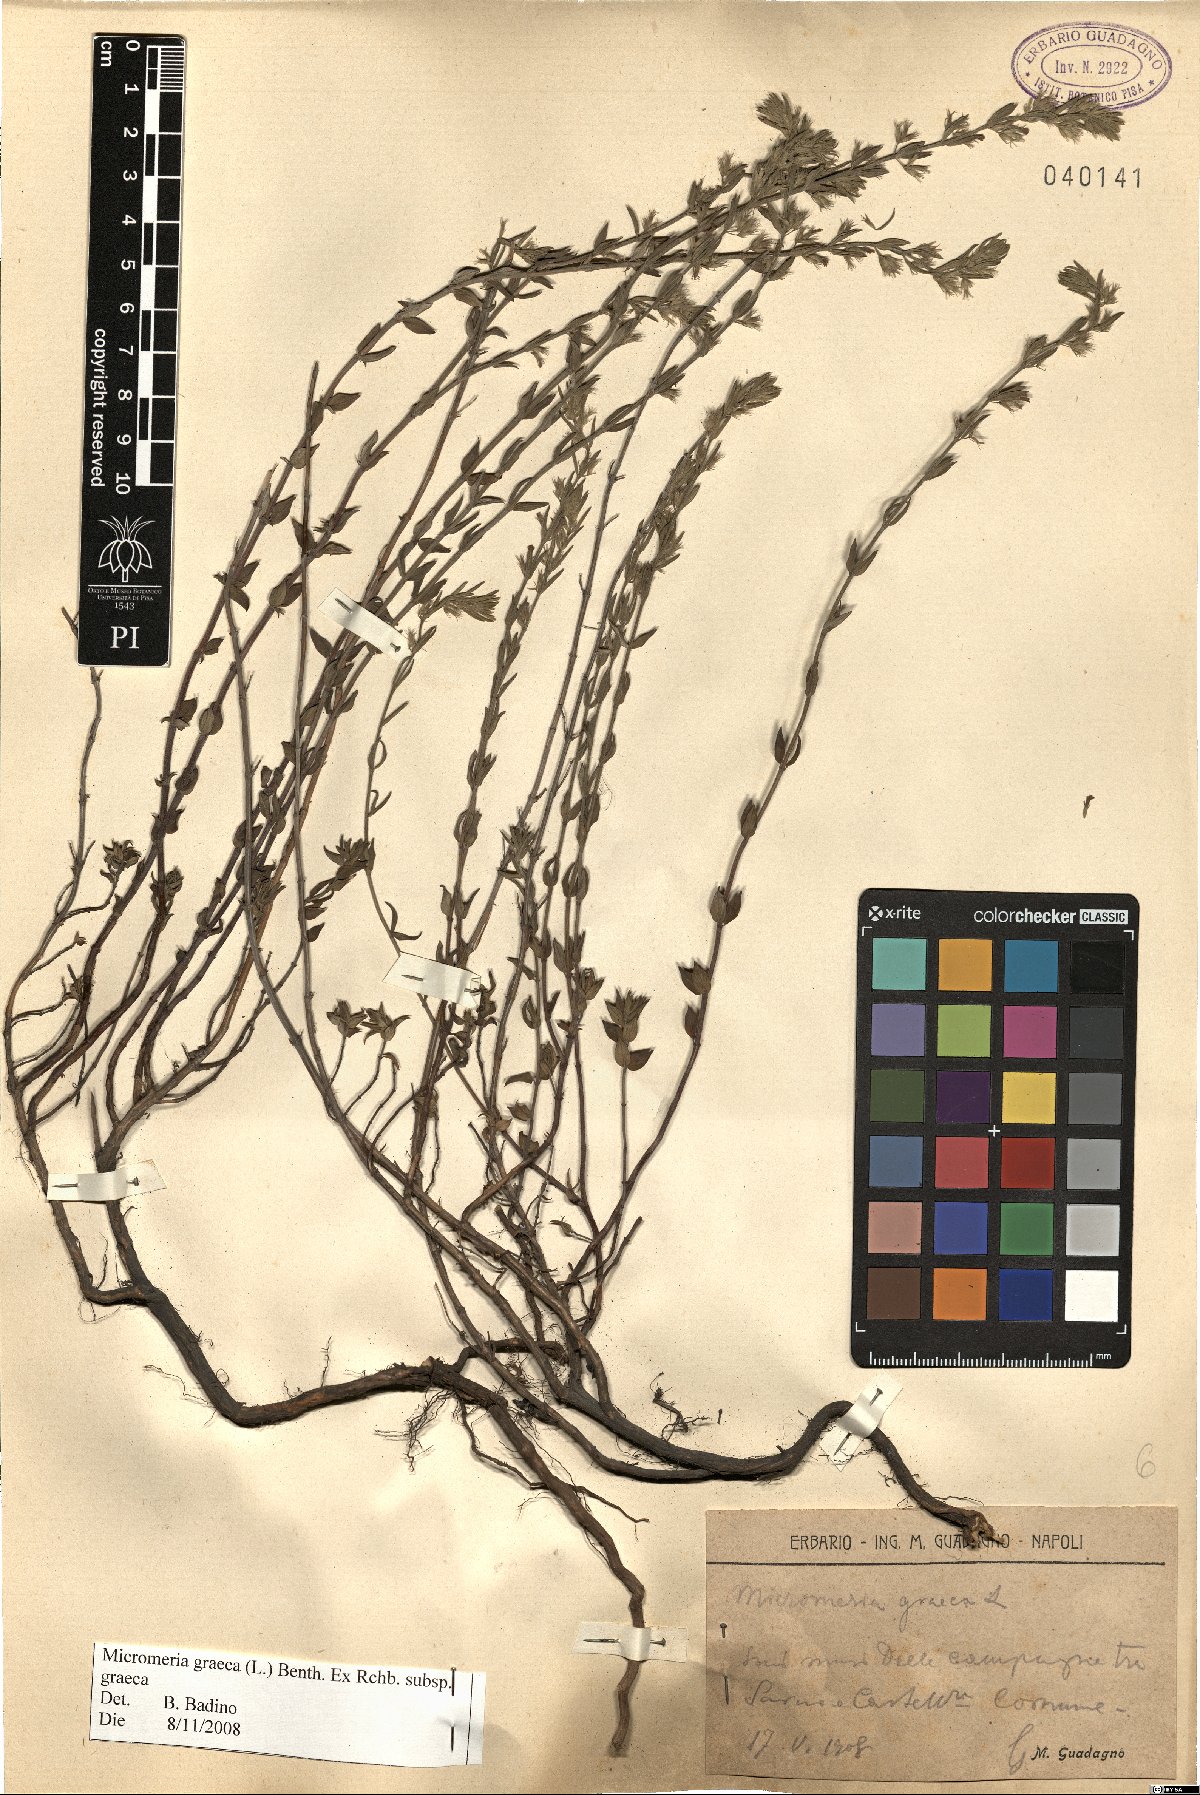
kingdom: Plantae
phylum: Tracheophyta
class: Magnoliopsida
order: Lamiales
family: Lamiaceae
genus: Micromeria
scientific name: Micromeria graeca
